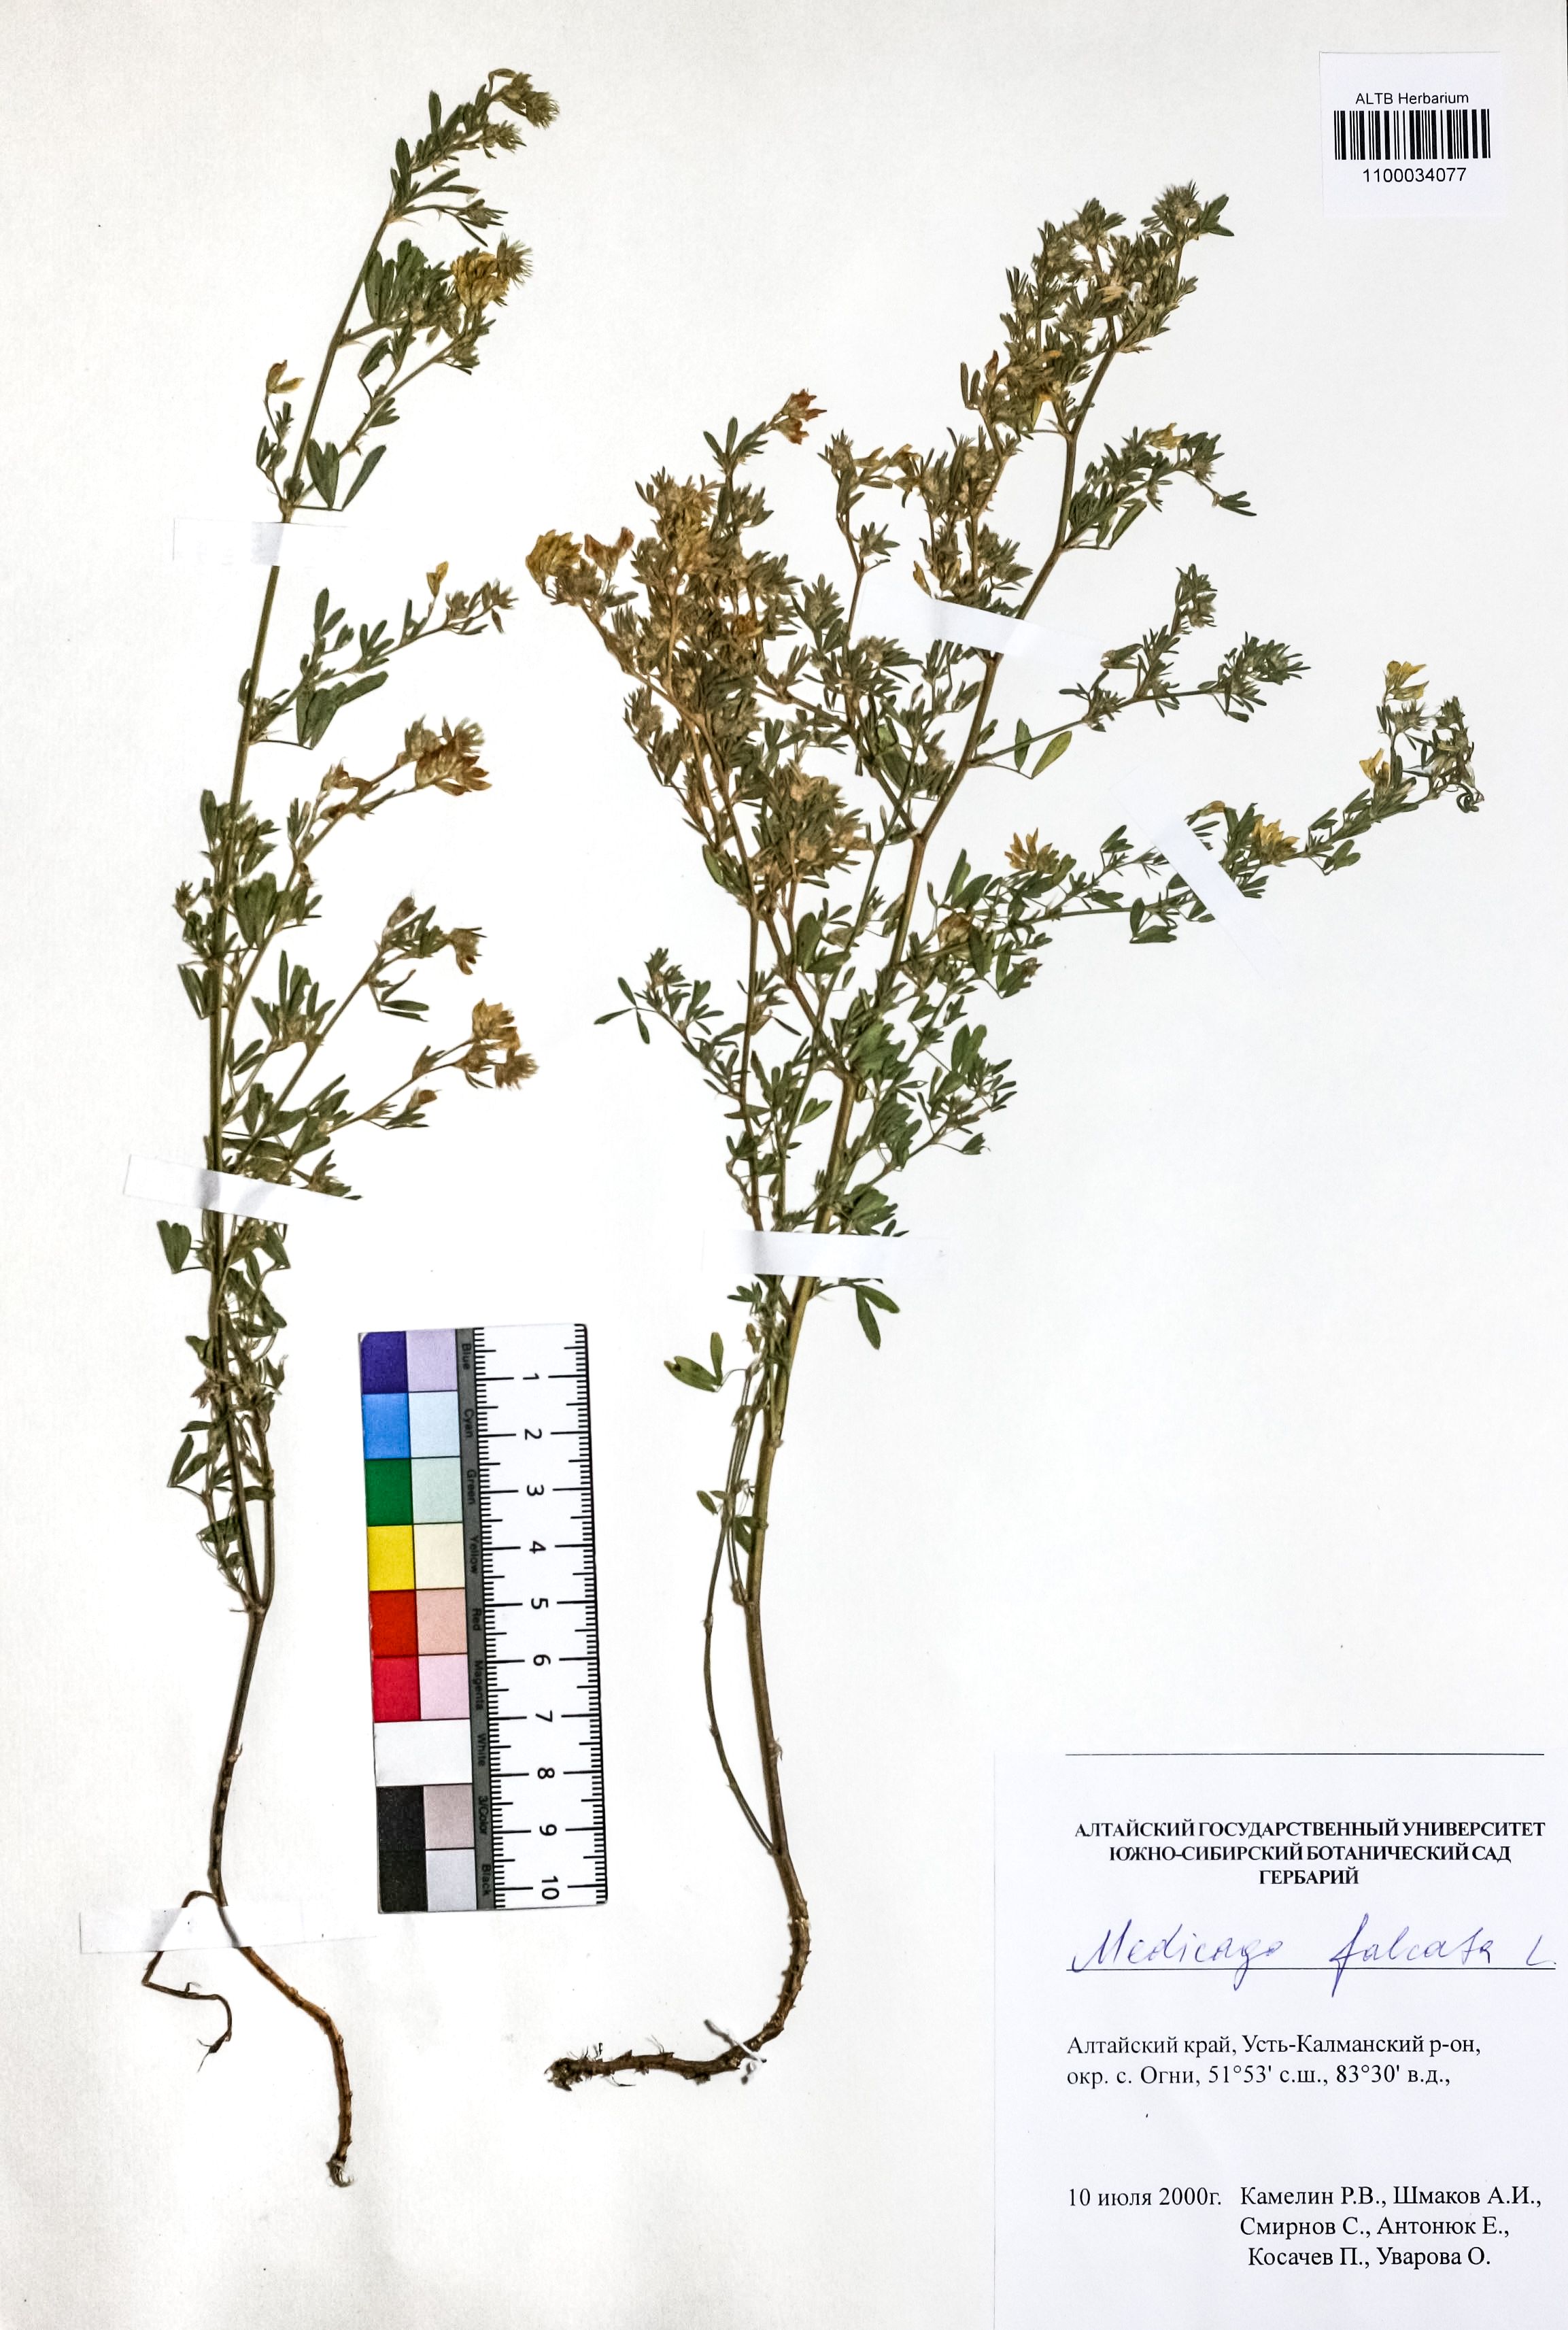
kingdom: Plantae
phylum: Tracheophyta
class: Magnoliopsida
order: Fabales
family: Fabaceae
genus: Medicago
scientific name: Medicago falcata
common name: Sickle medick
